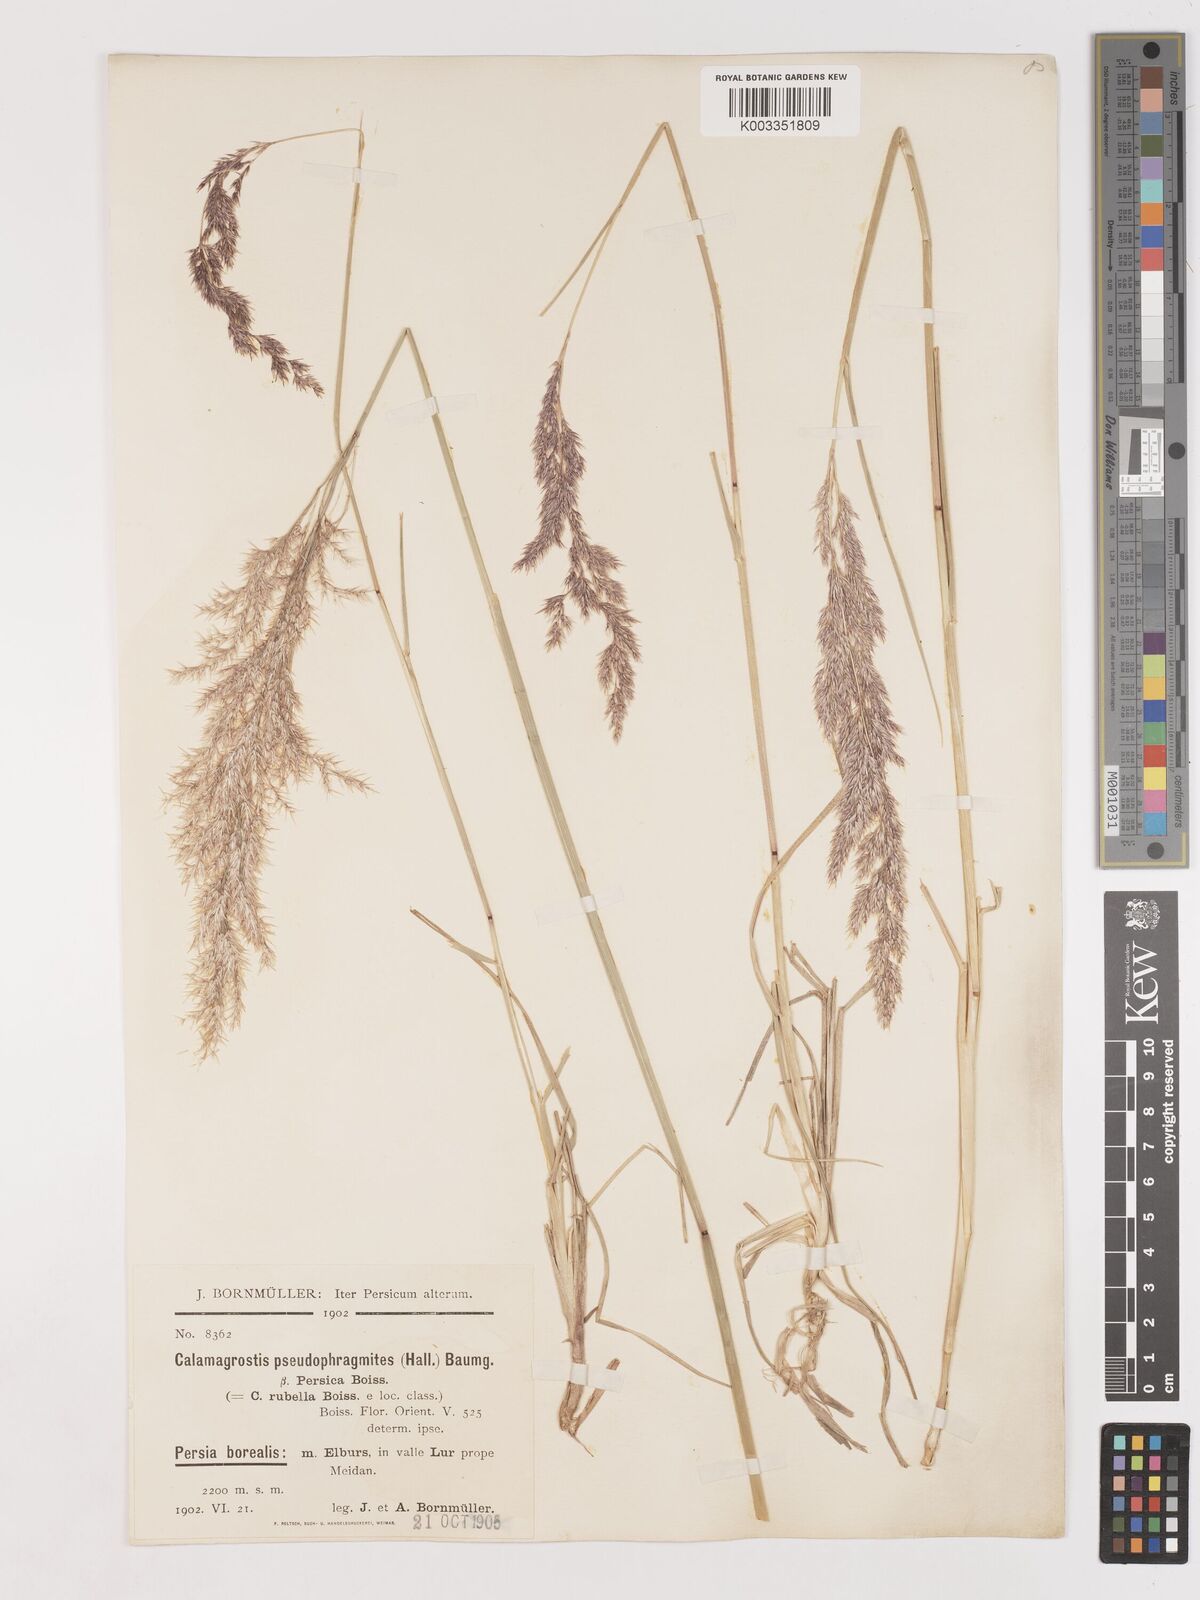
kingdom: Plantae
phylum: Tracheophyta
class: Liliopsida
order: Poales
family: Poaceae
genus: Calamagrostis
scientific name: Calamagrostis pseudophragmites
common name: Coastal small-reed
